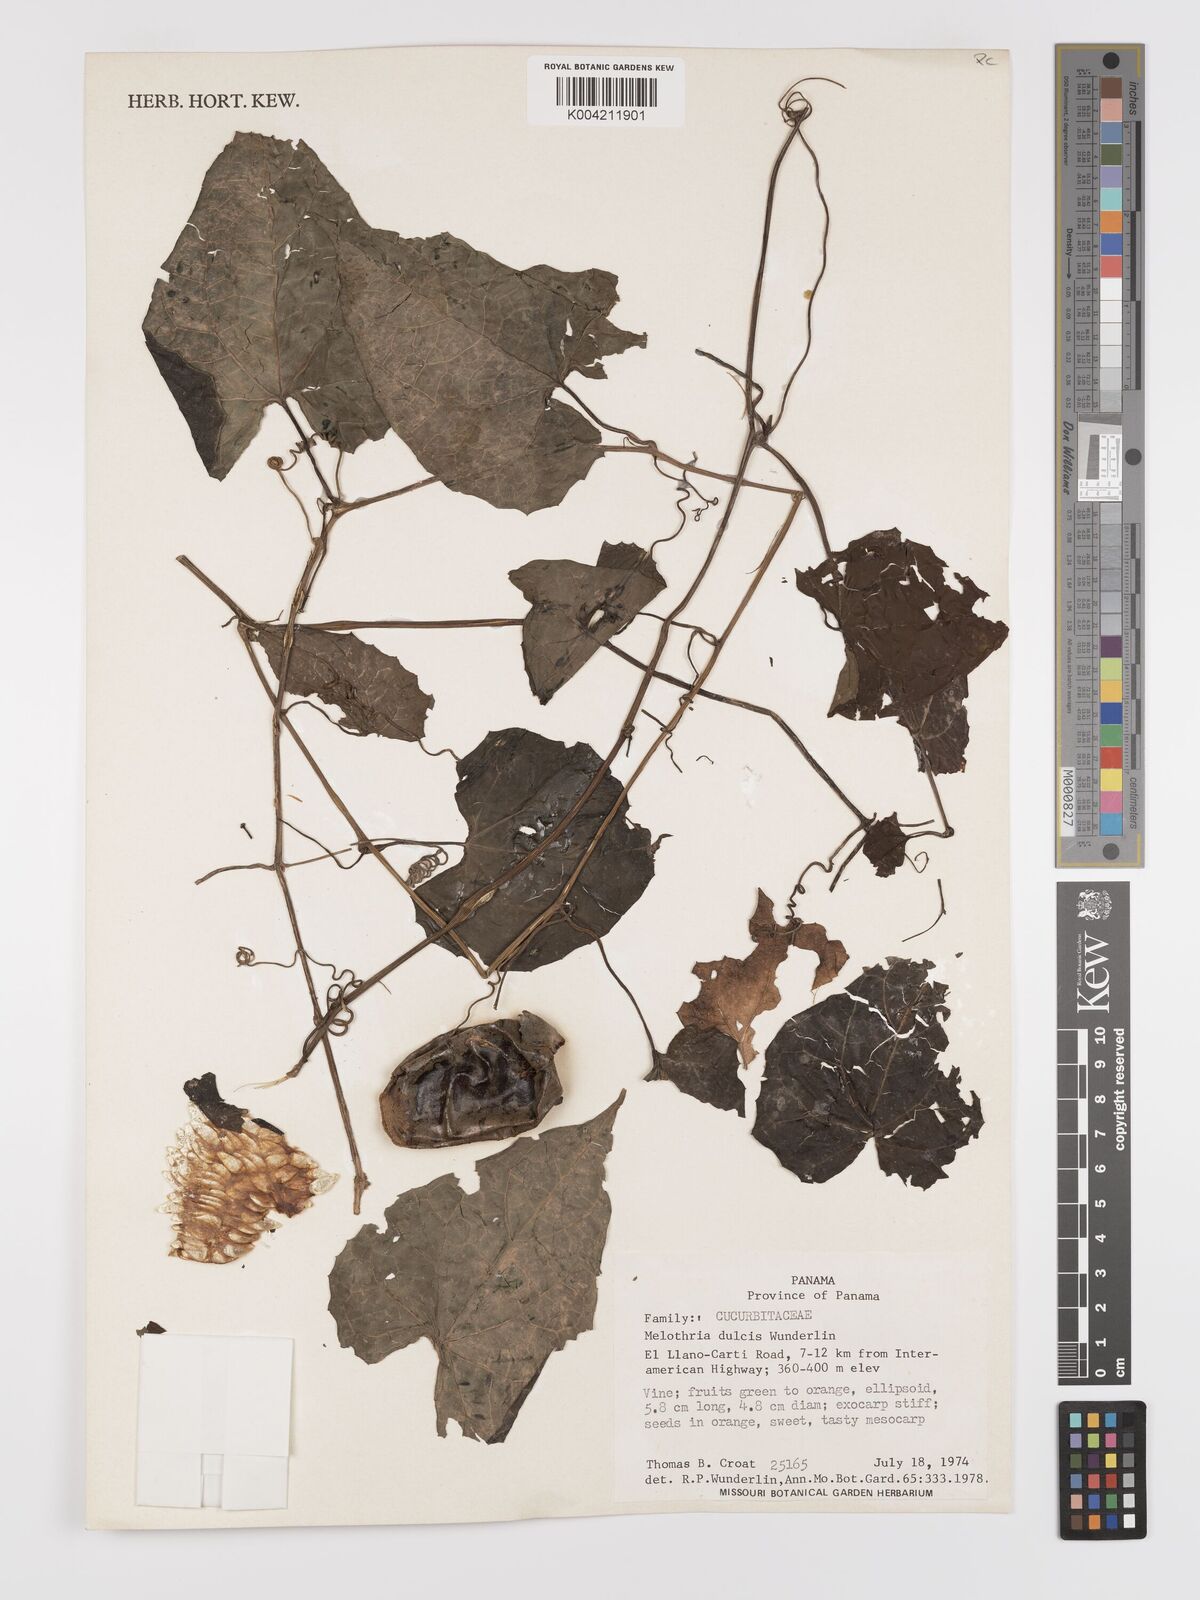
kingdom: Plantae
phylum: Tracheophyta
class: Magnoliopsida
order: Cucurbitales
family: Cucurbitaceae
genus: Melothria
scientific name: Melothria dulcis
